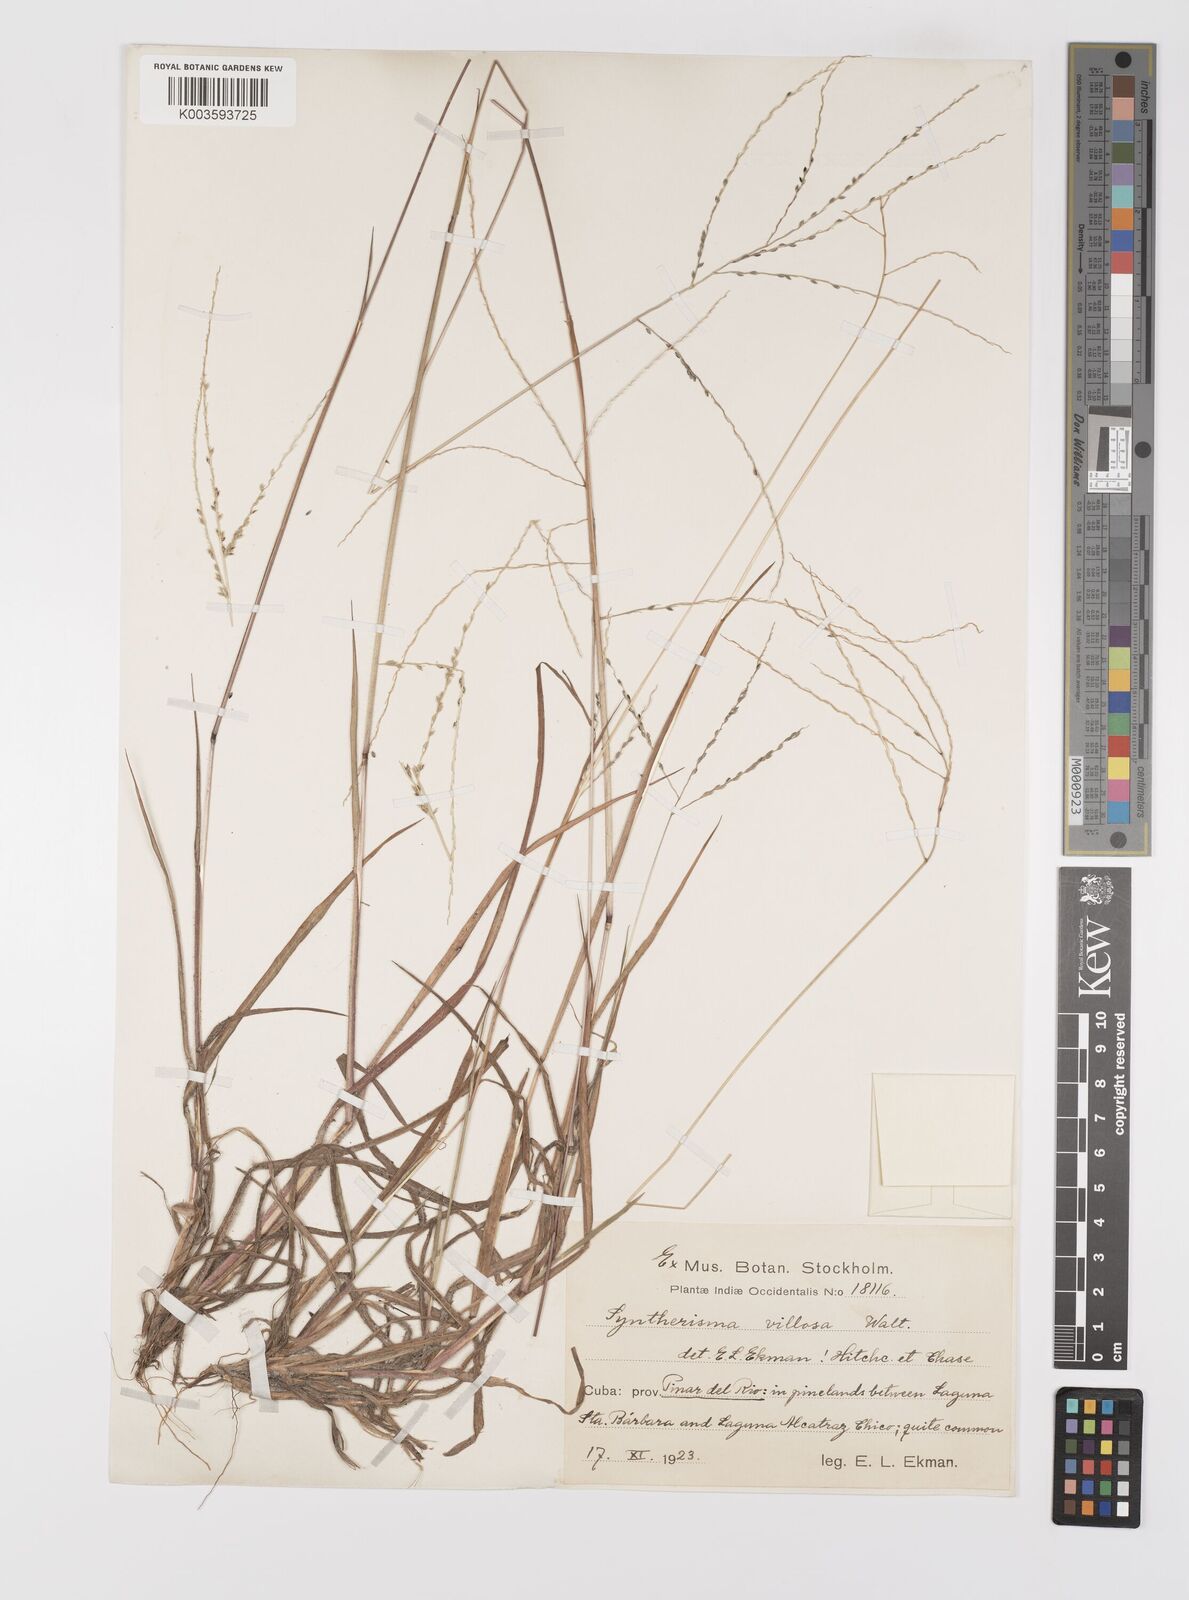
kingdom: Plantae
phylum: Tracheophyta
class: Liliopsida
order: Poales
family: Poaceae
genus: Digitaria
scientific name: Digitaria villosa
